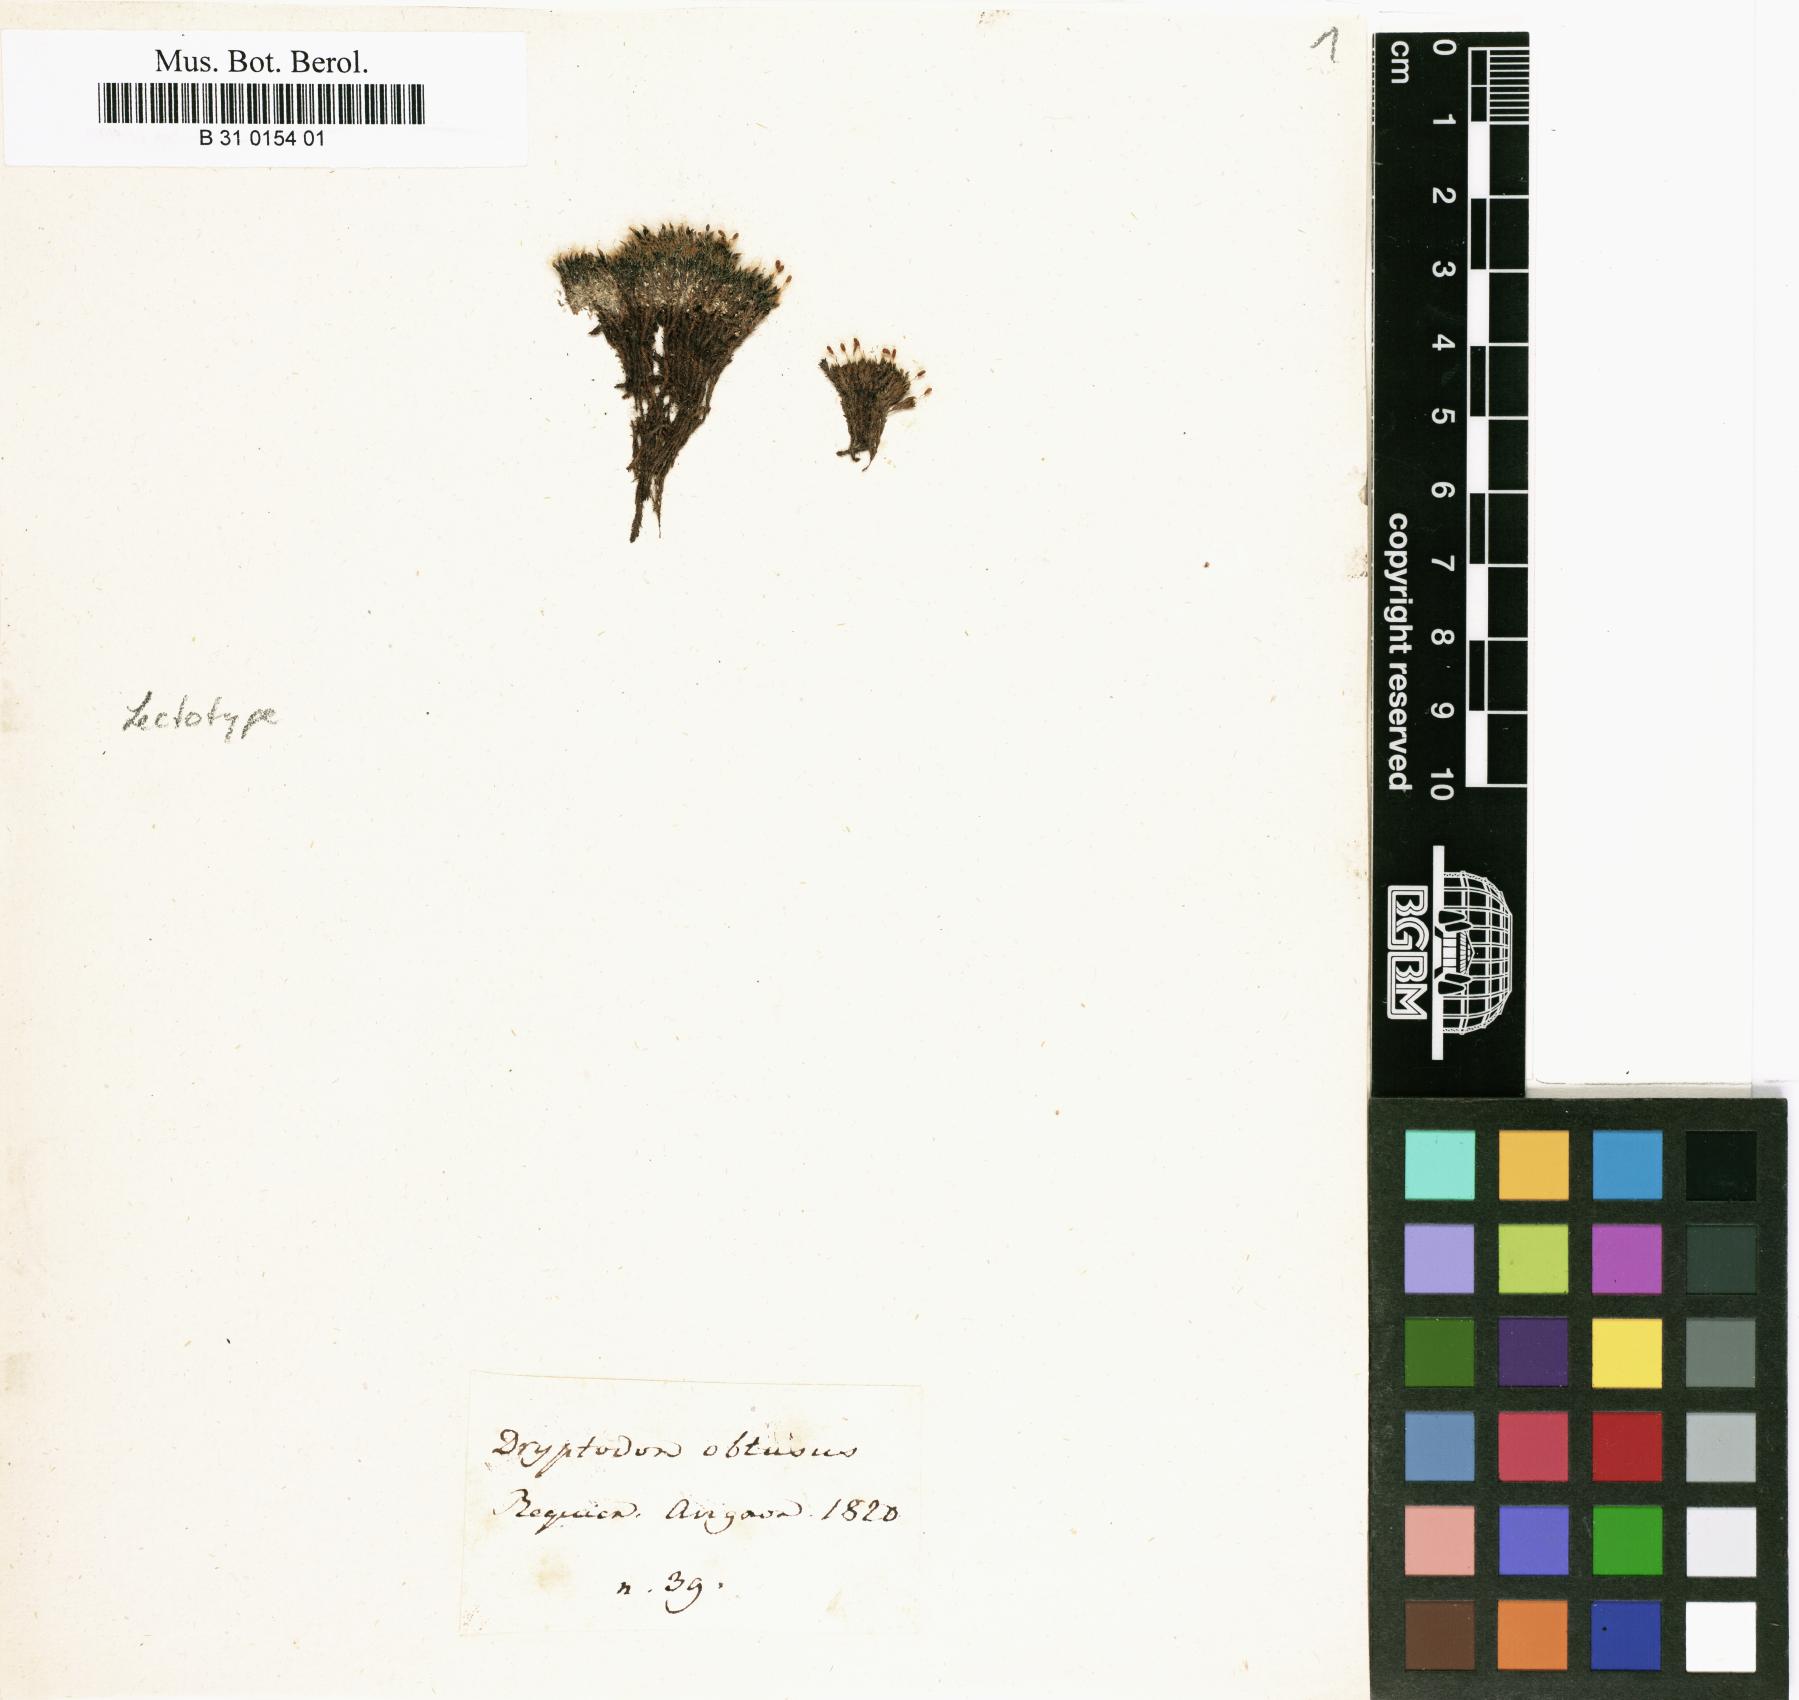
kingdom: Plantae
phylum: Bryophyta
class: Bryopsida
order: Grimmiales
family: Grimmiaceae
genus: Grimmia
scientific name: Grimmia pulvinata
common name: Grey-cushioned grimmia
